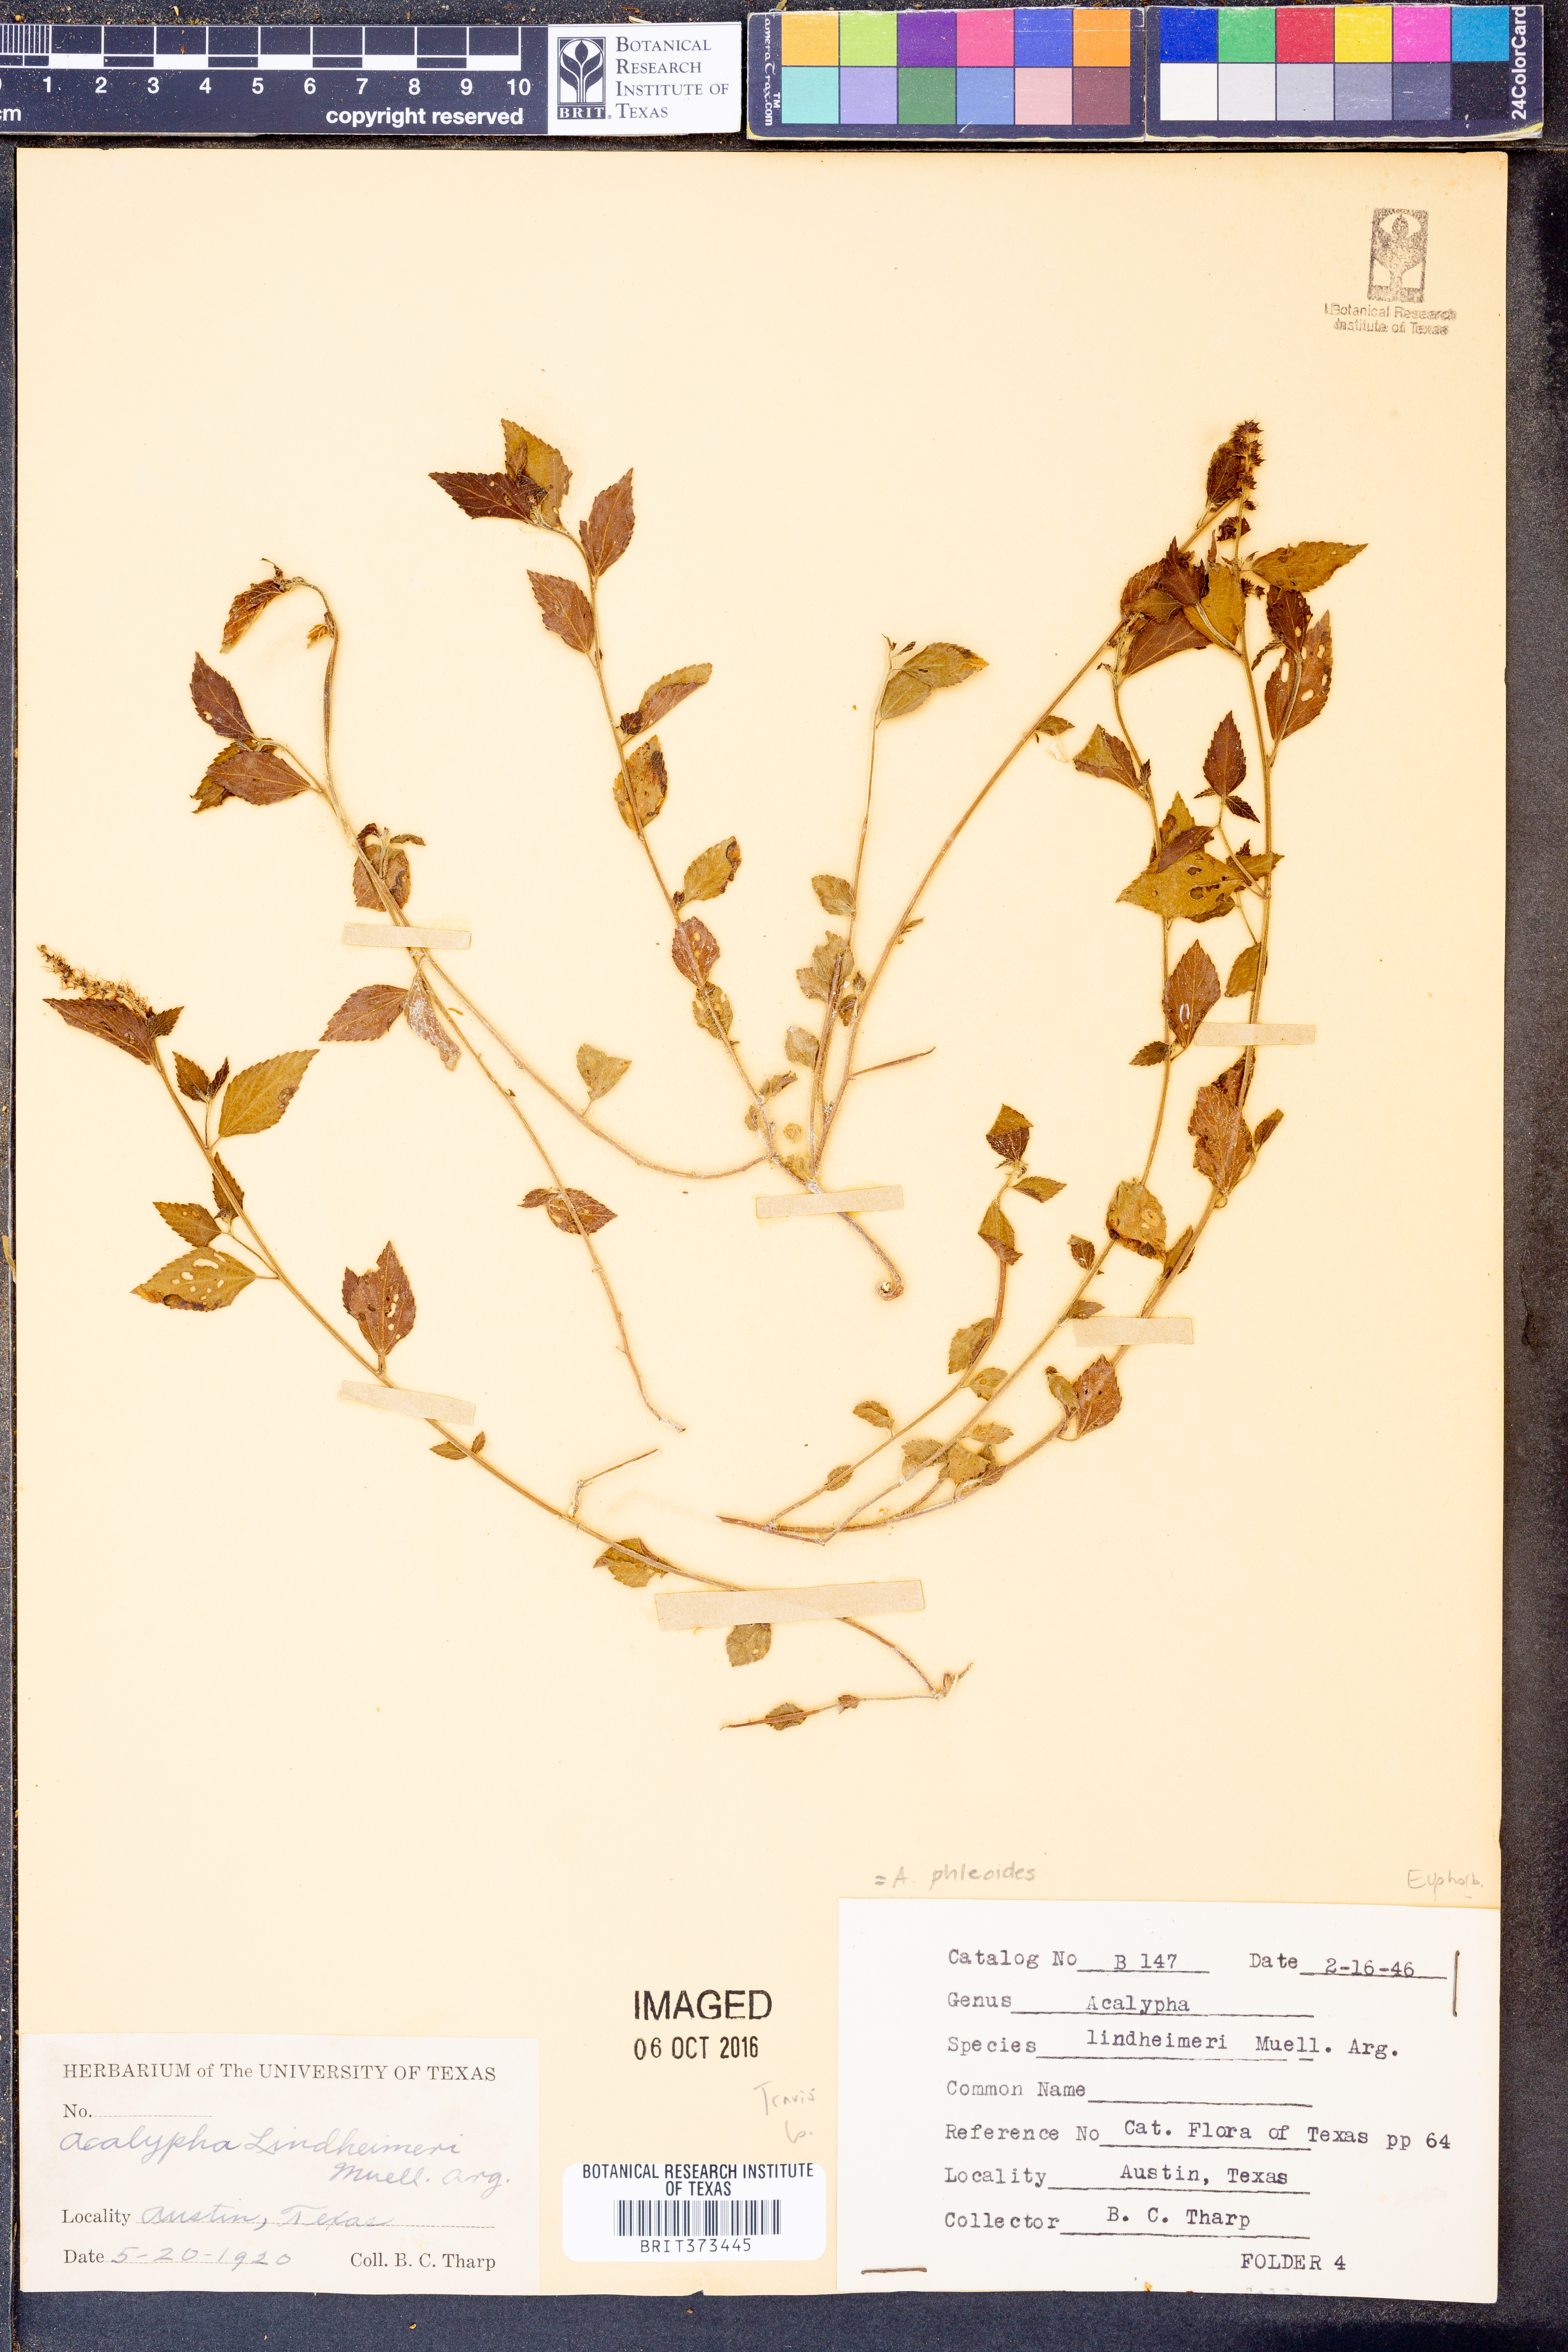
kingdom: Plantae
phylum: Tracheophyta
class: Magnoliopsida
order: Malpighiales
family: Euphorbiaceae
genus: Acalypha
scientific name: Acalypha phleoides
